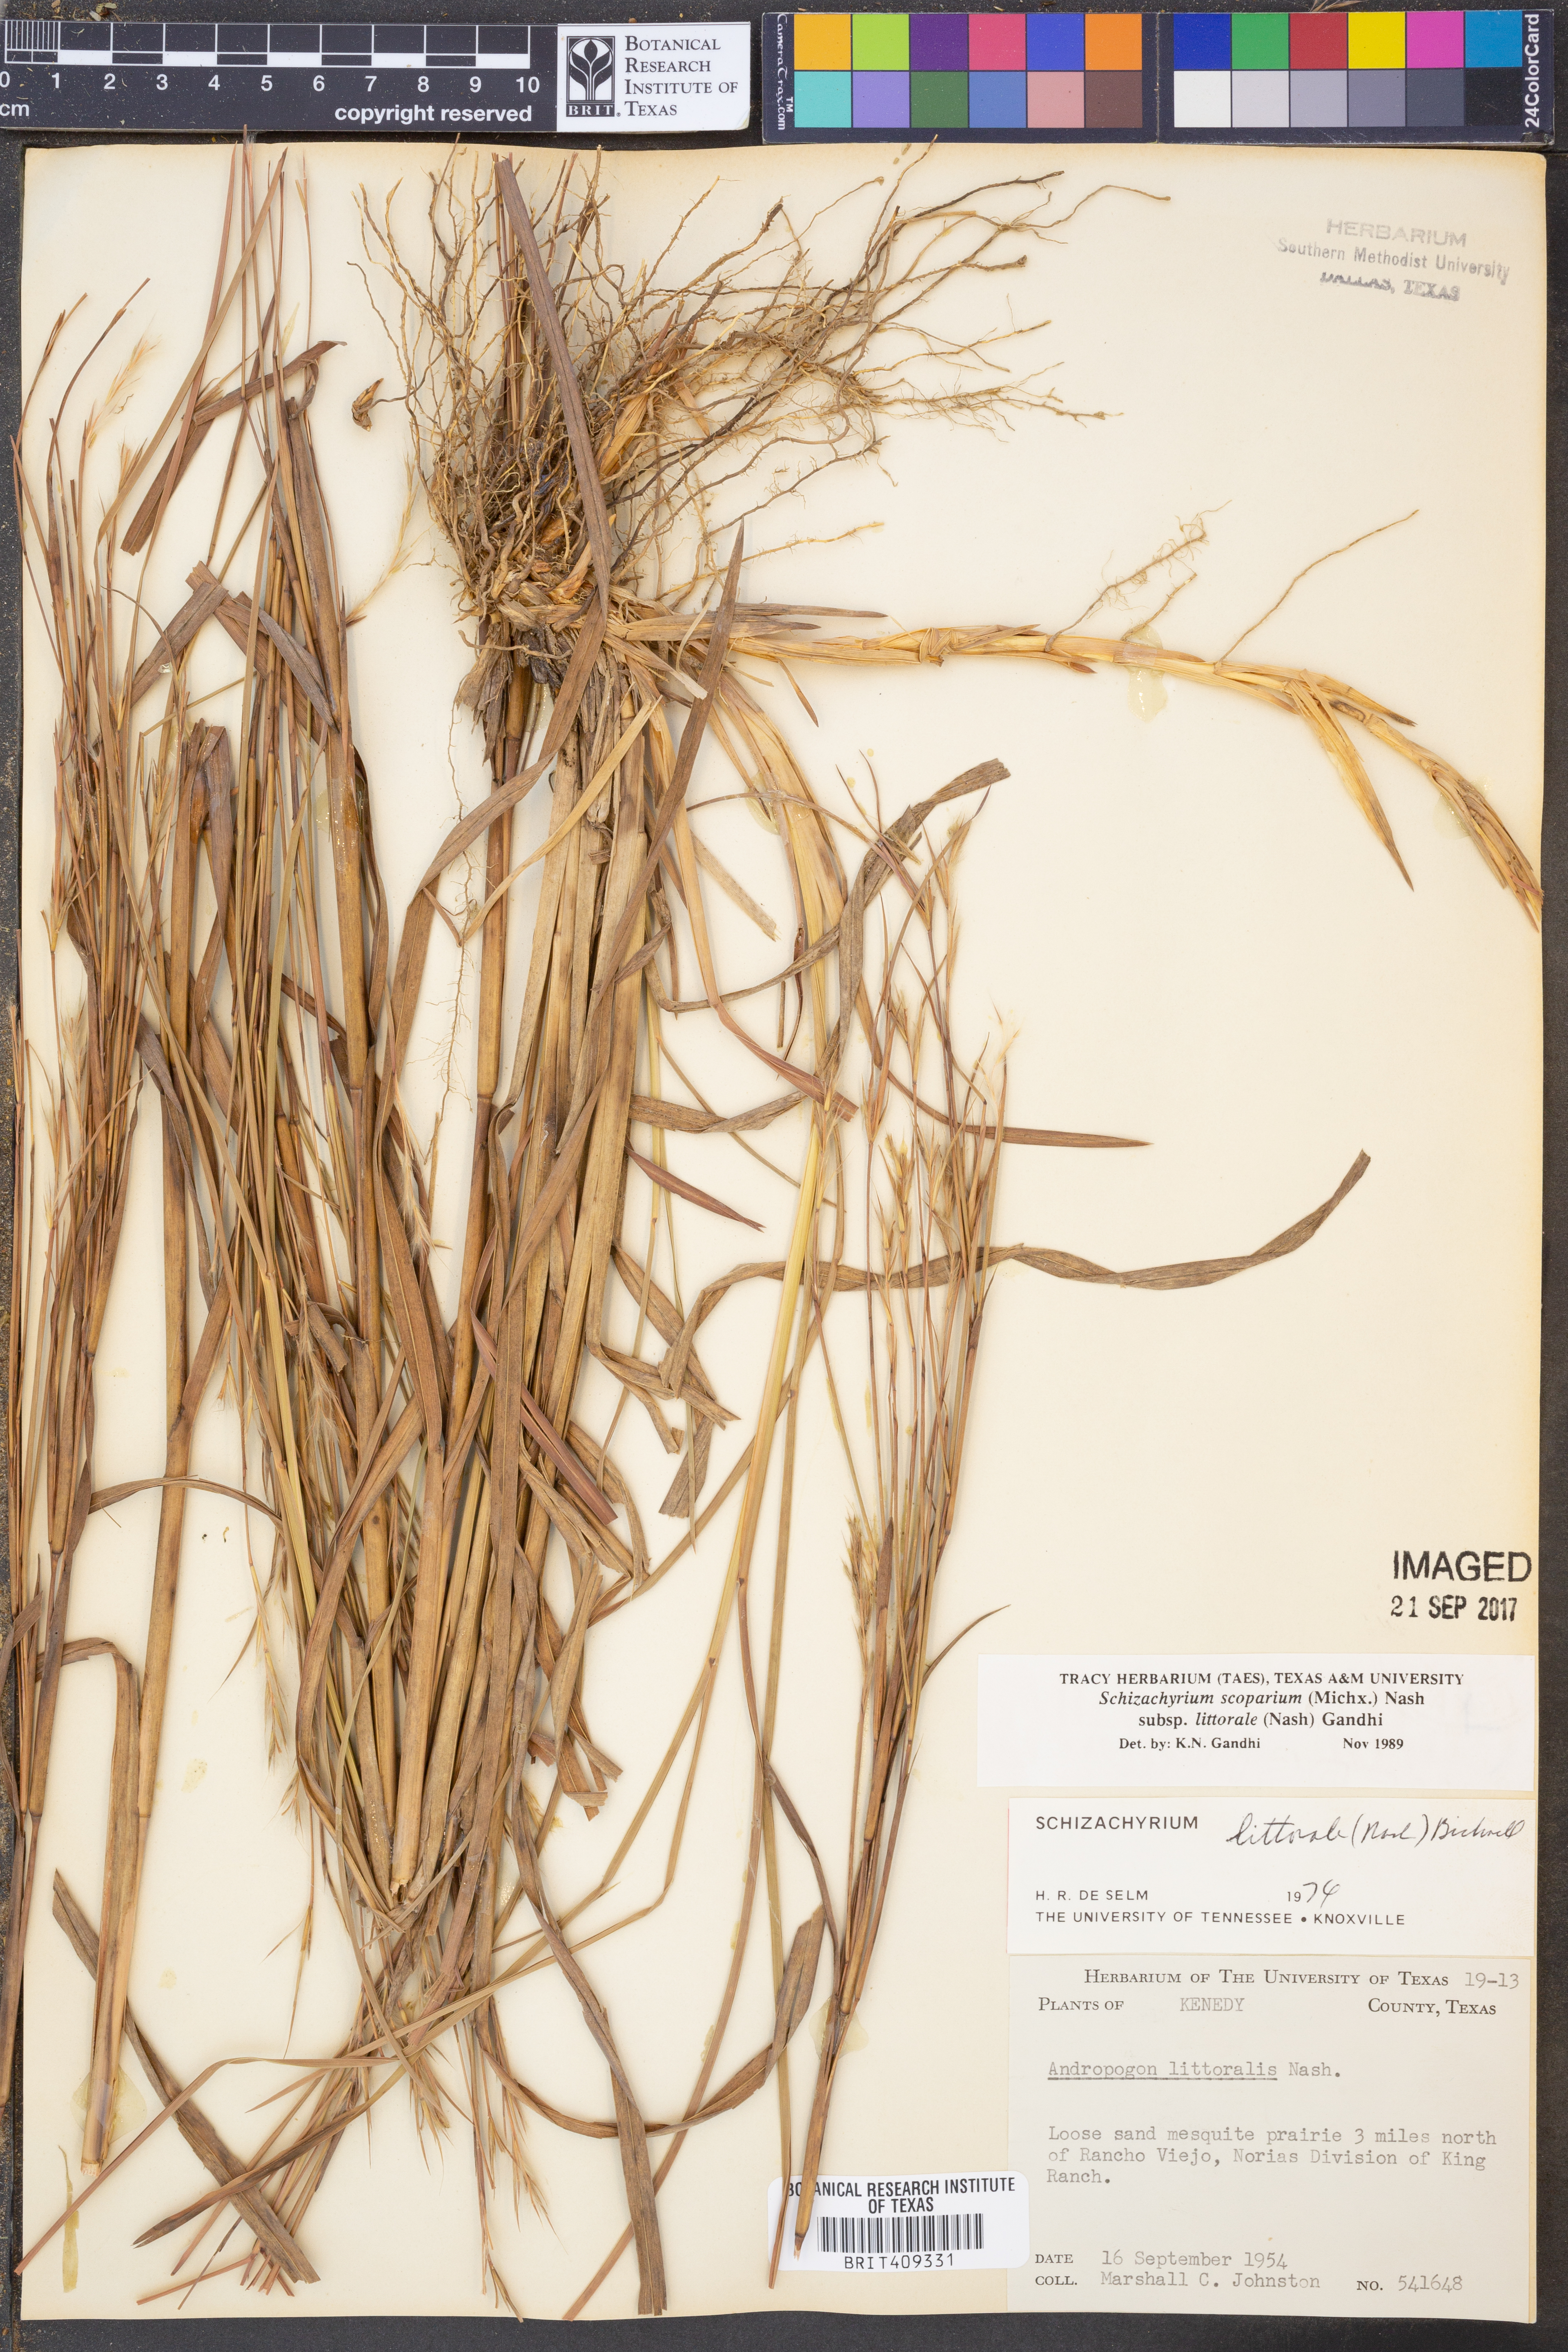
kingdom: Plantae
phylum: Tracheophyta
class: Liliopsida
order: Poales
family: Poaceae
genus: Schizachyrium
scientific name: Schizachyrium scoparium
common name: Little bluestem
